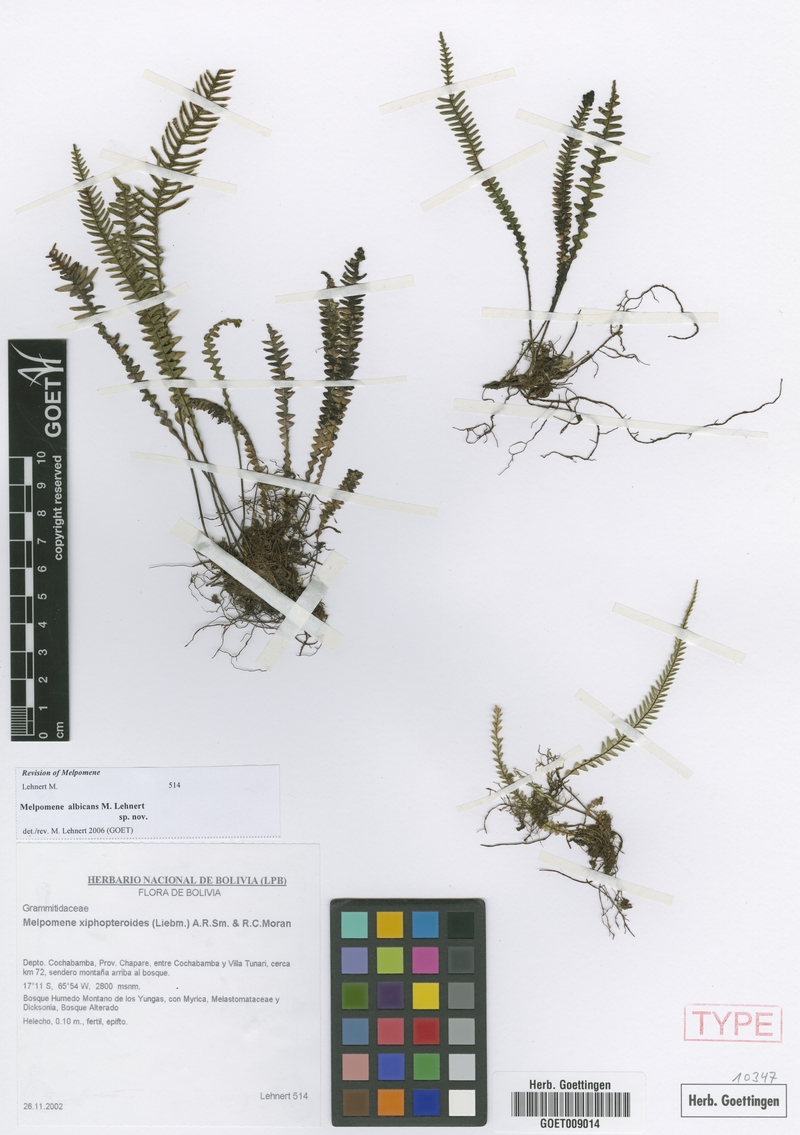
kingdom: Plantae
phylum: Tracheophyta
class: Polypodiopsida
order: Polypodiales
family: Polypodiaceae
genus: Melpomene
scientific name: Melpomene albicans
